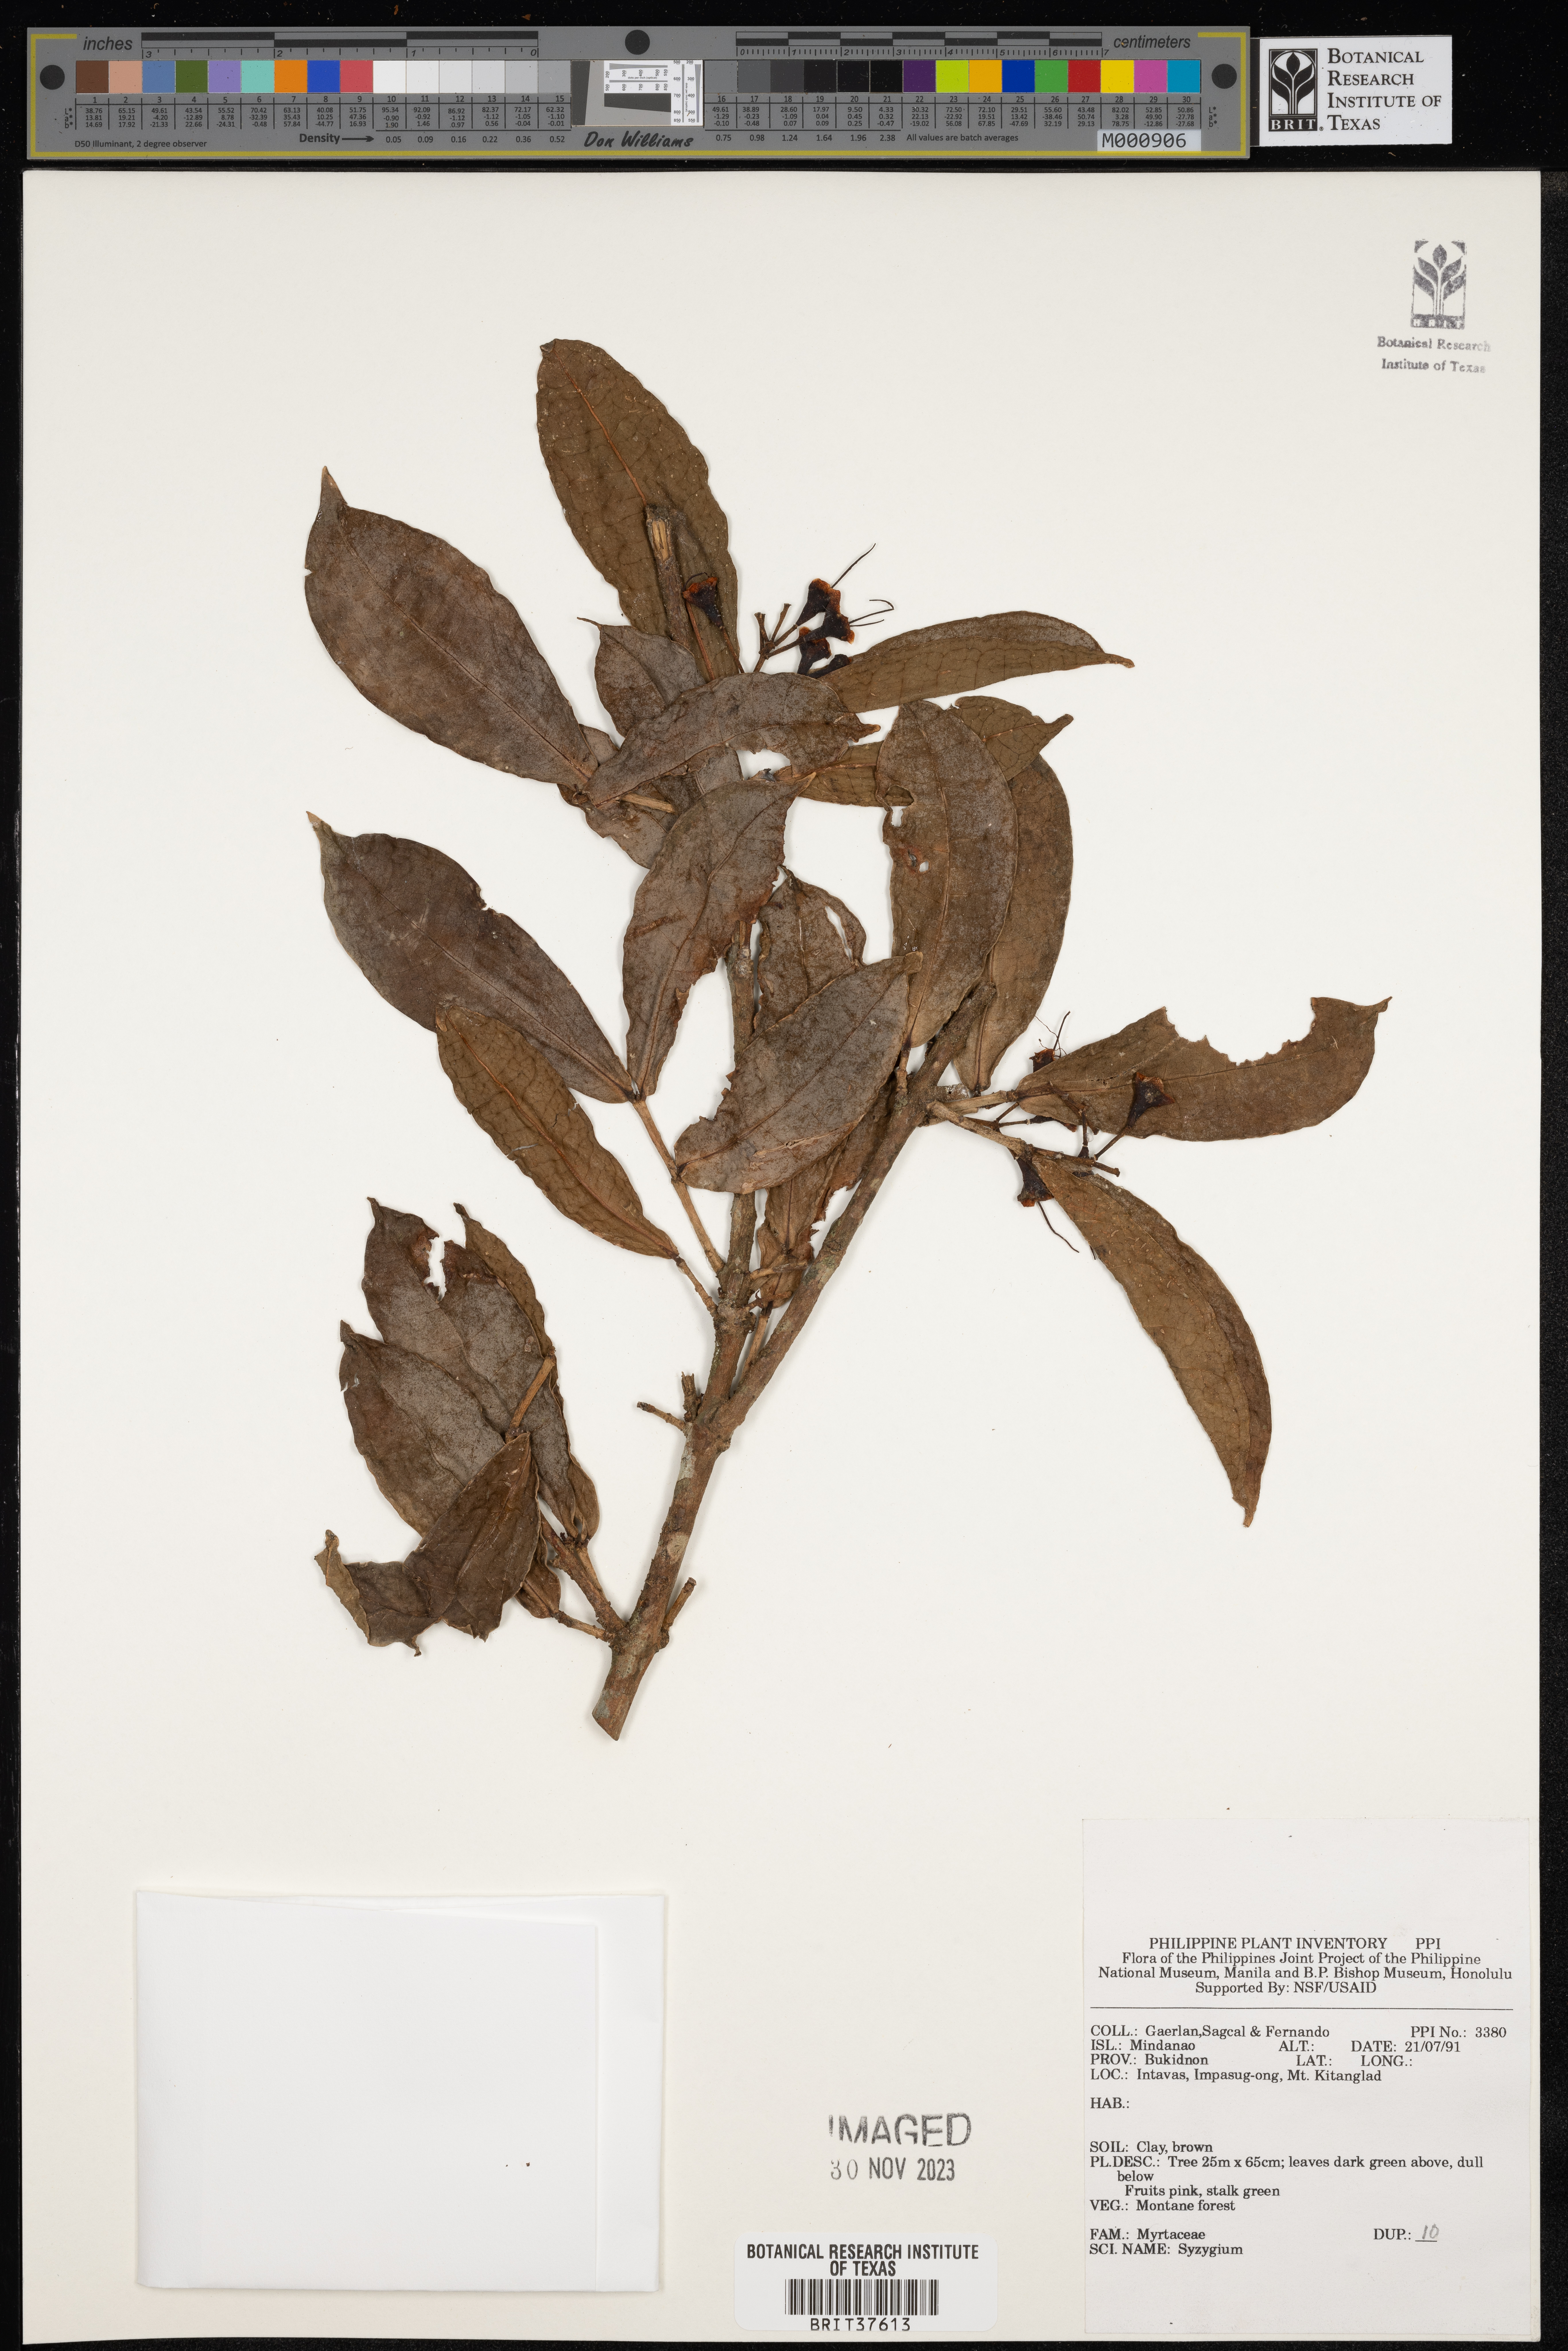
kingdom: Plantae
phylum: Tracheophyta
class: Magnoliopsida
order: Myrtales
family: Myrtaceae
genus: Syzygium
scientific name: Syzygium
